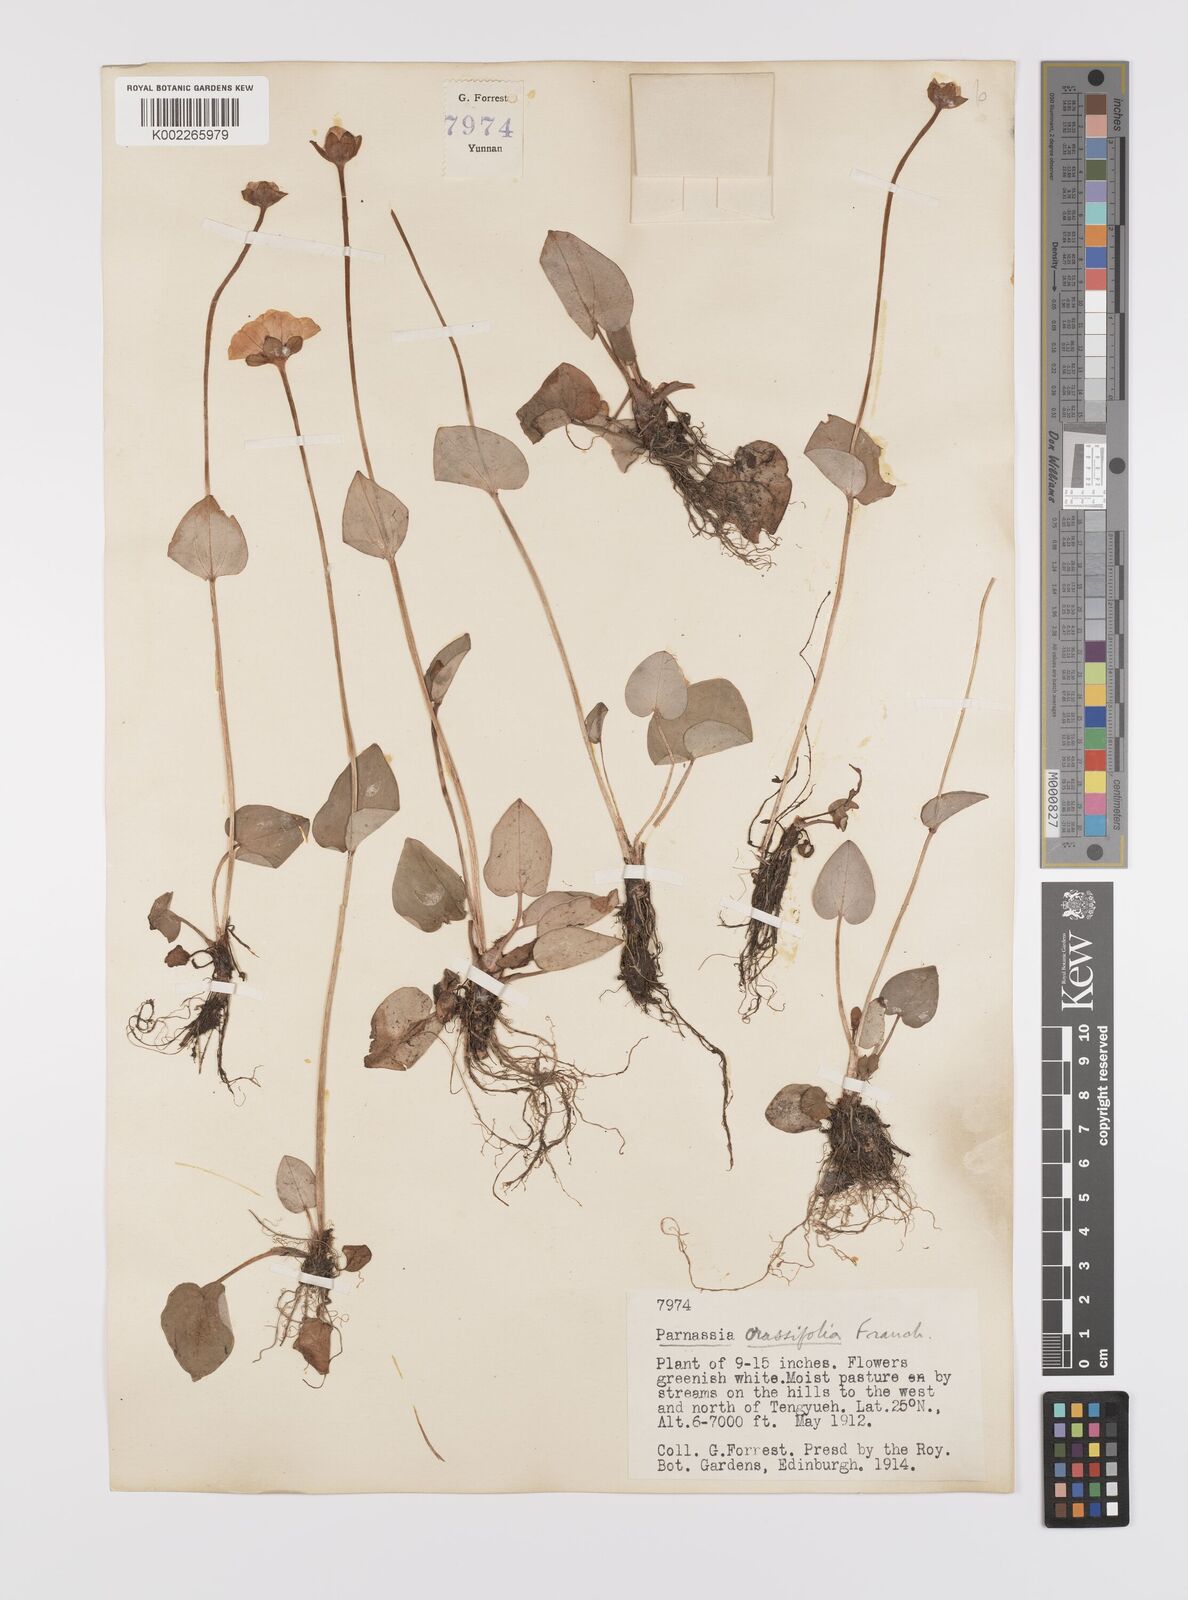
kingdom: Plantae
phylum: Tracheophyta
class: Magnoliopsida
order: Celastrales
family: Parnassiaceae
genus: Parnassia
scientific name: Parnassia crassifolia
